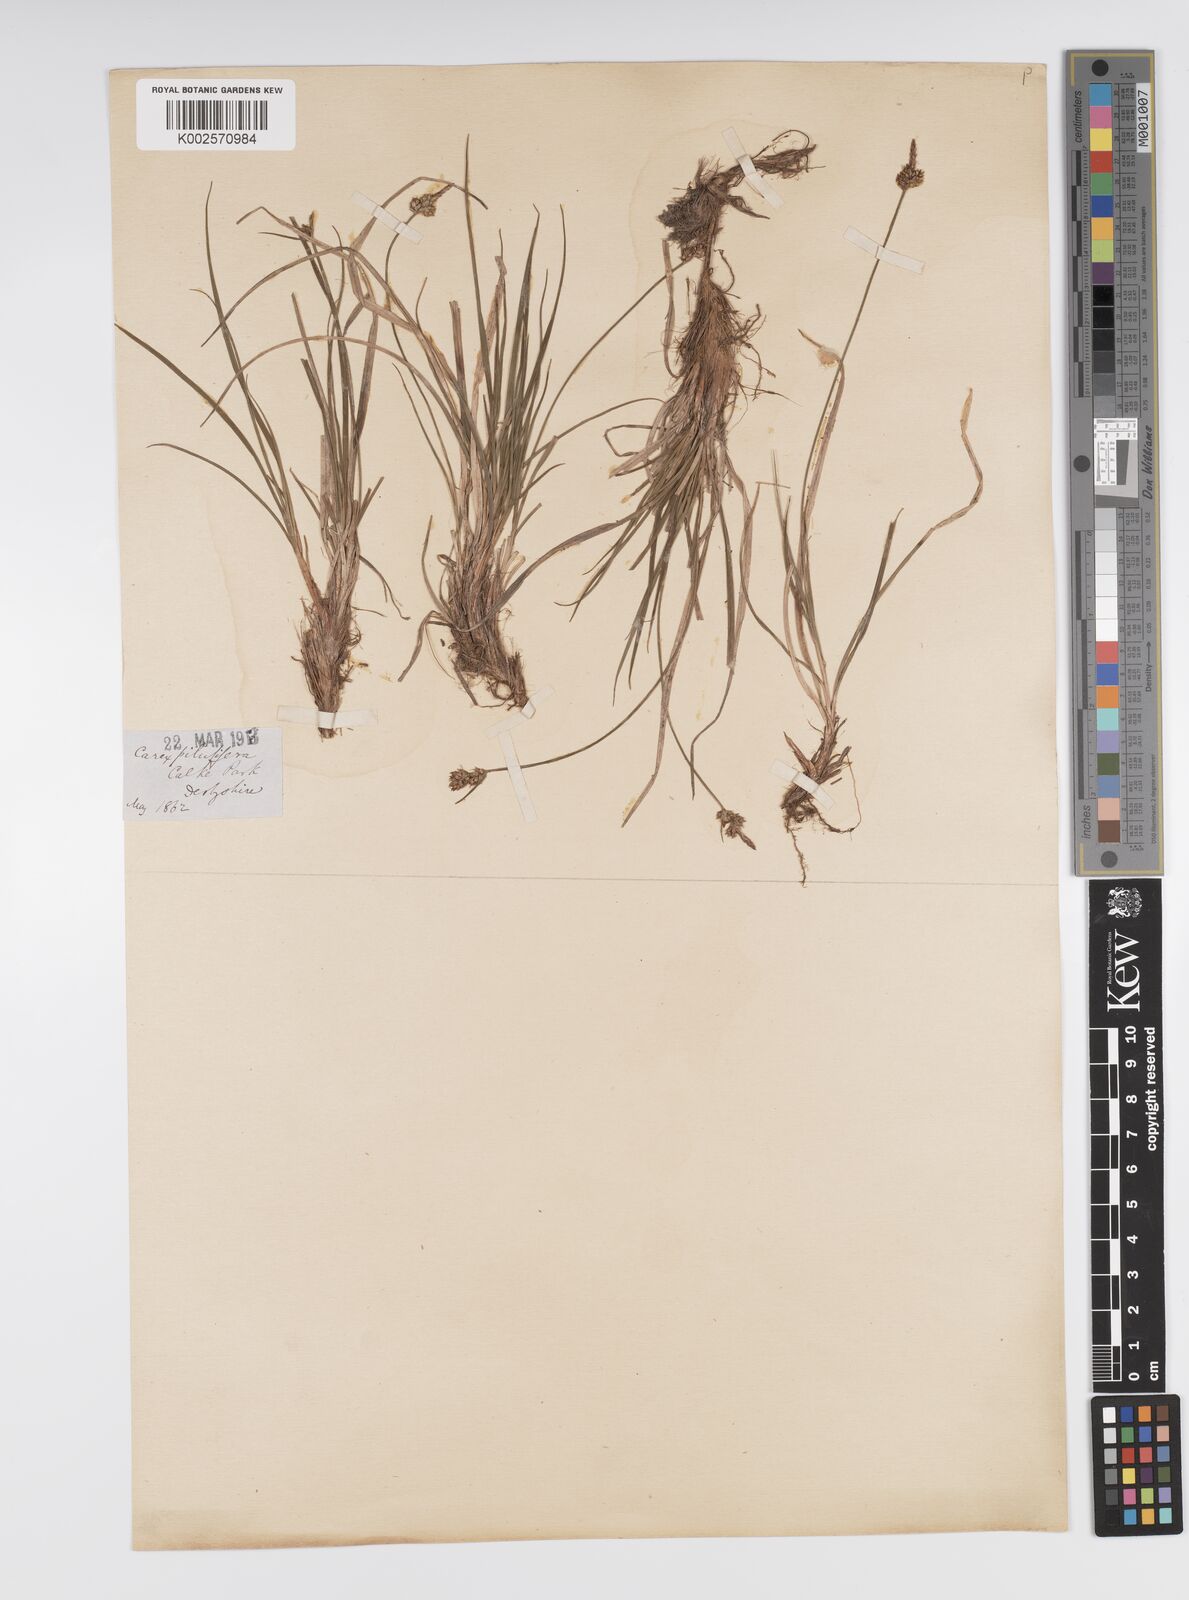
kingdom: Plantae
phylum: Tracheophyta
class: Liliopsida
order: Poales
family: Cyperaceae
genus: Carex
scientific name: Carex pilulifera
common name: Pill sedge
